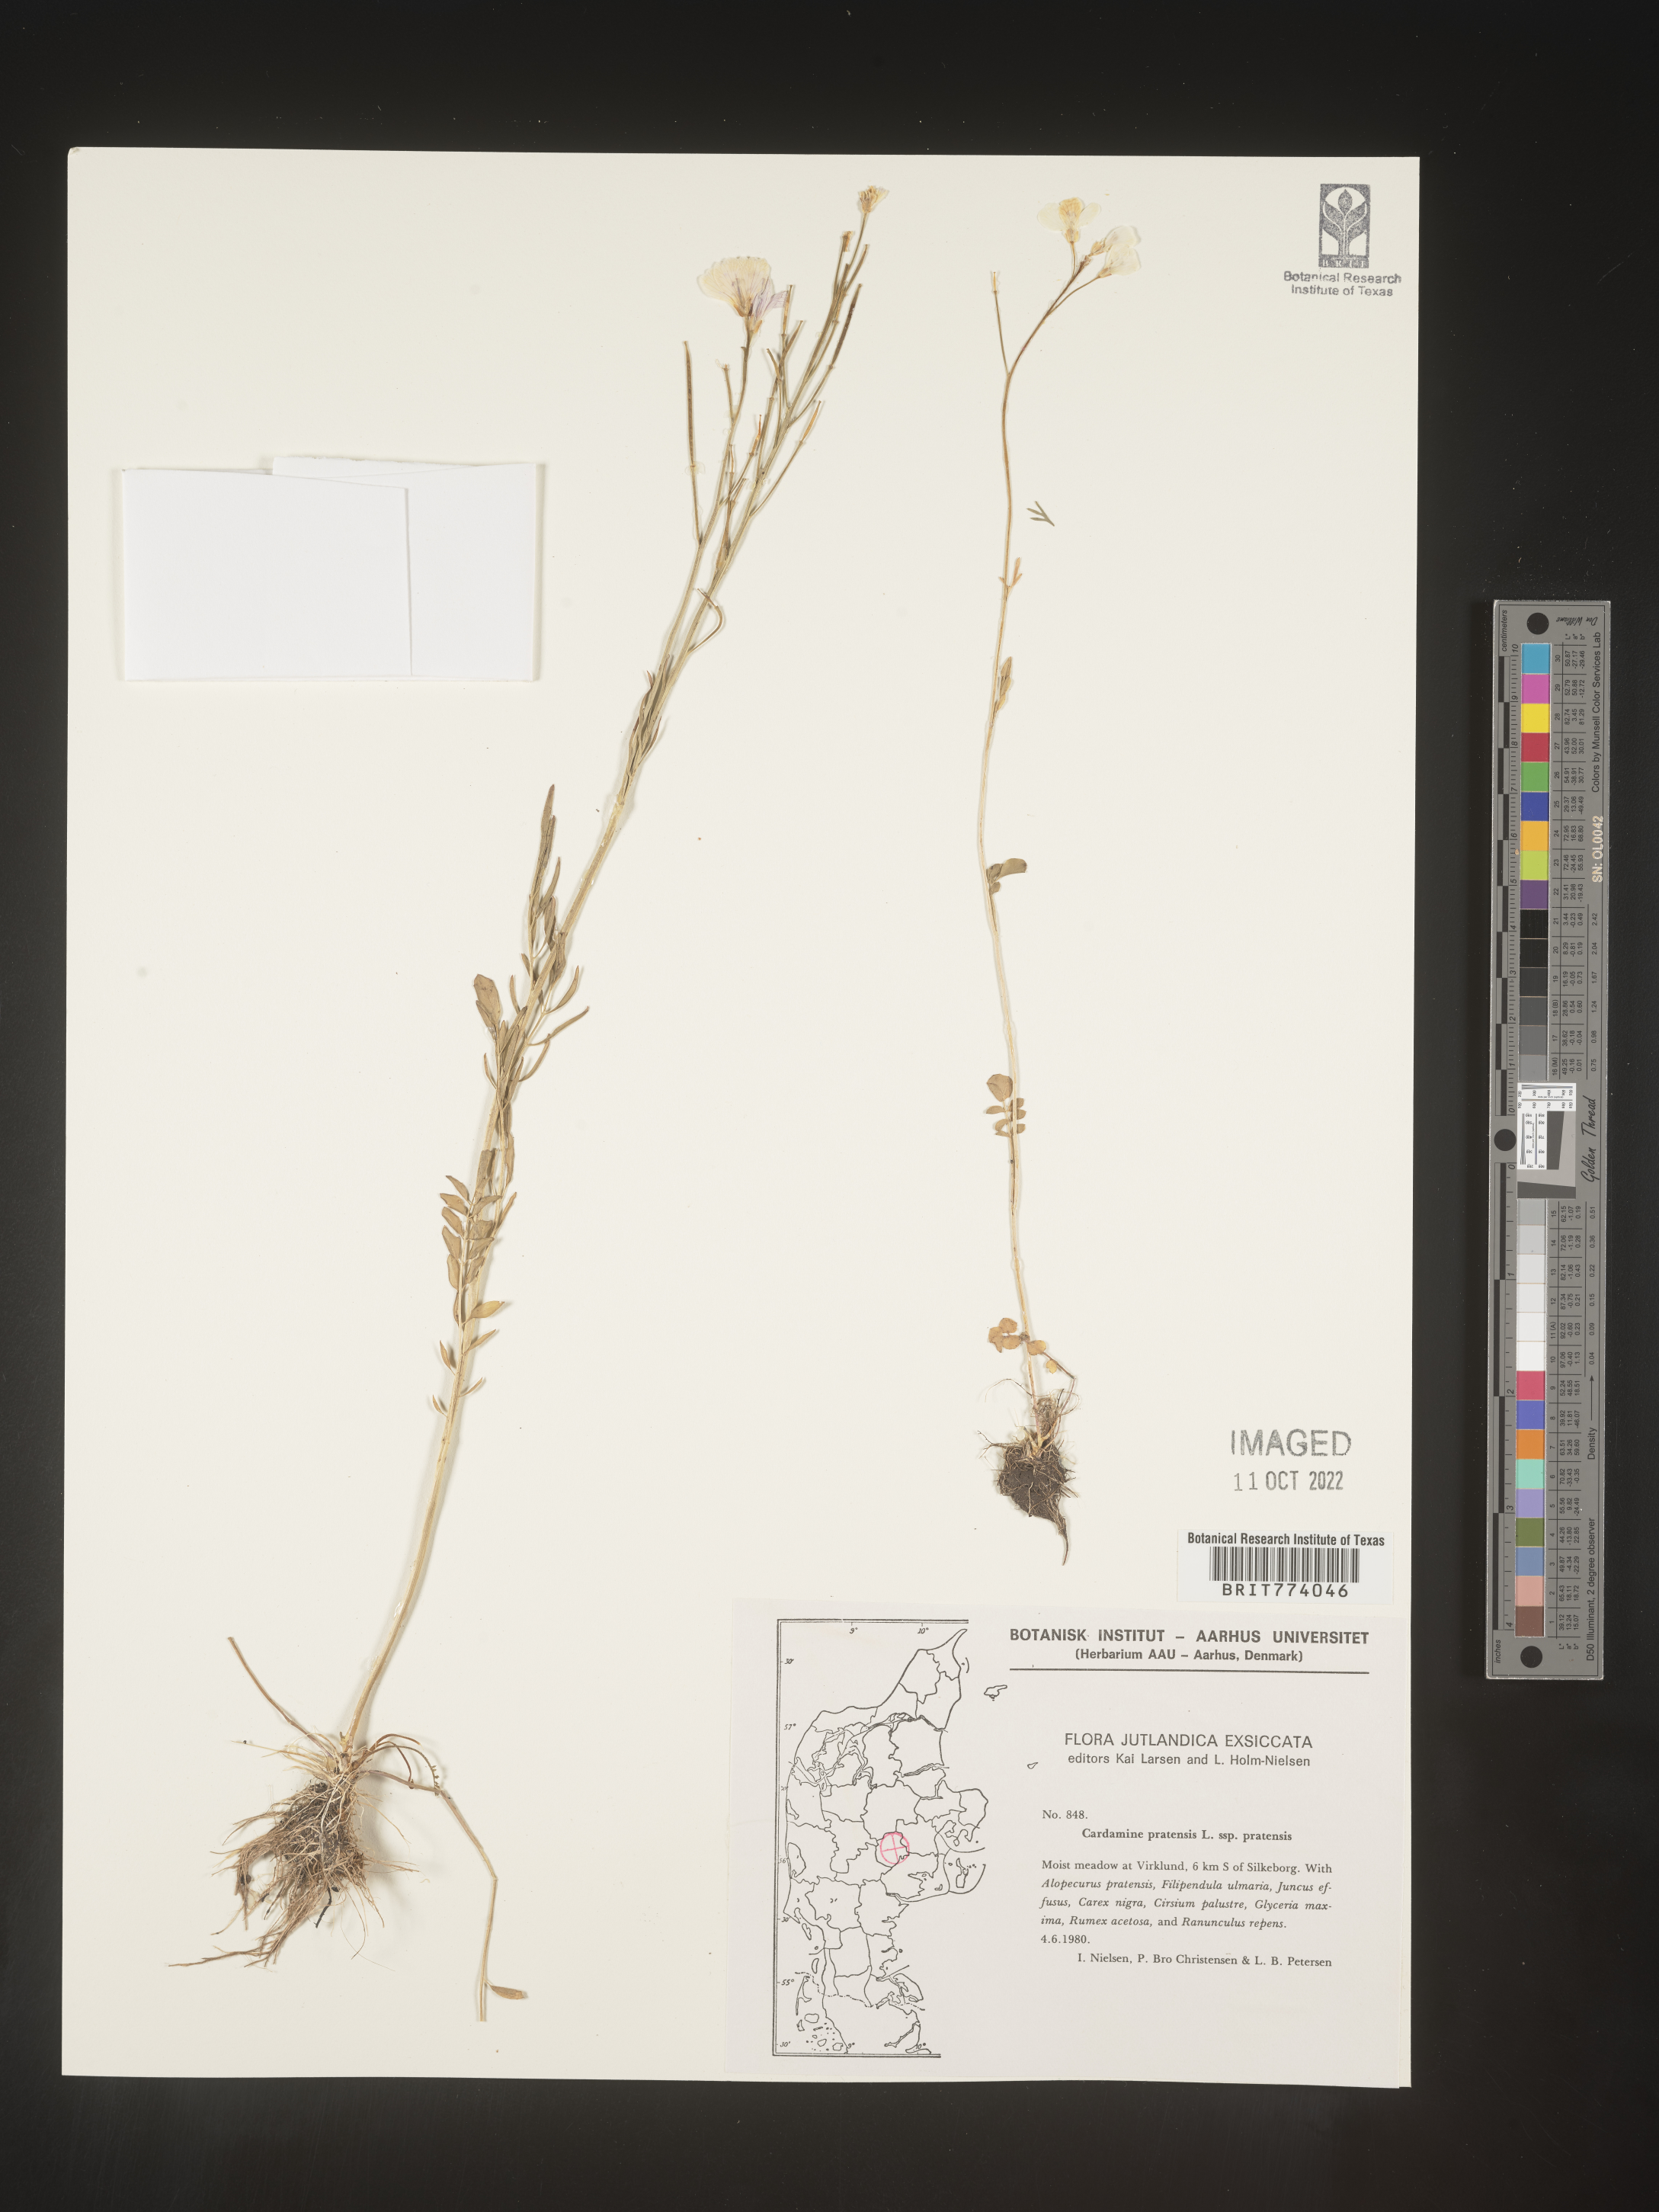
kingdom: Plantae
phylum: Tracheophyta
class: Magnoliopsida
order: Brassicales
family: Brassicaceae
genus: Cardamine
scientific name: Cardamine pratensis
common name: Cuckoo flower
